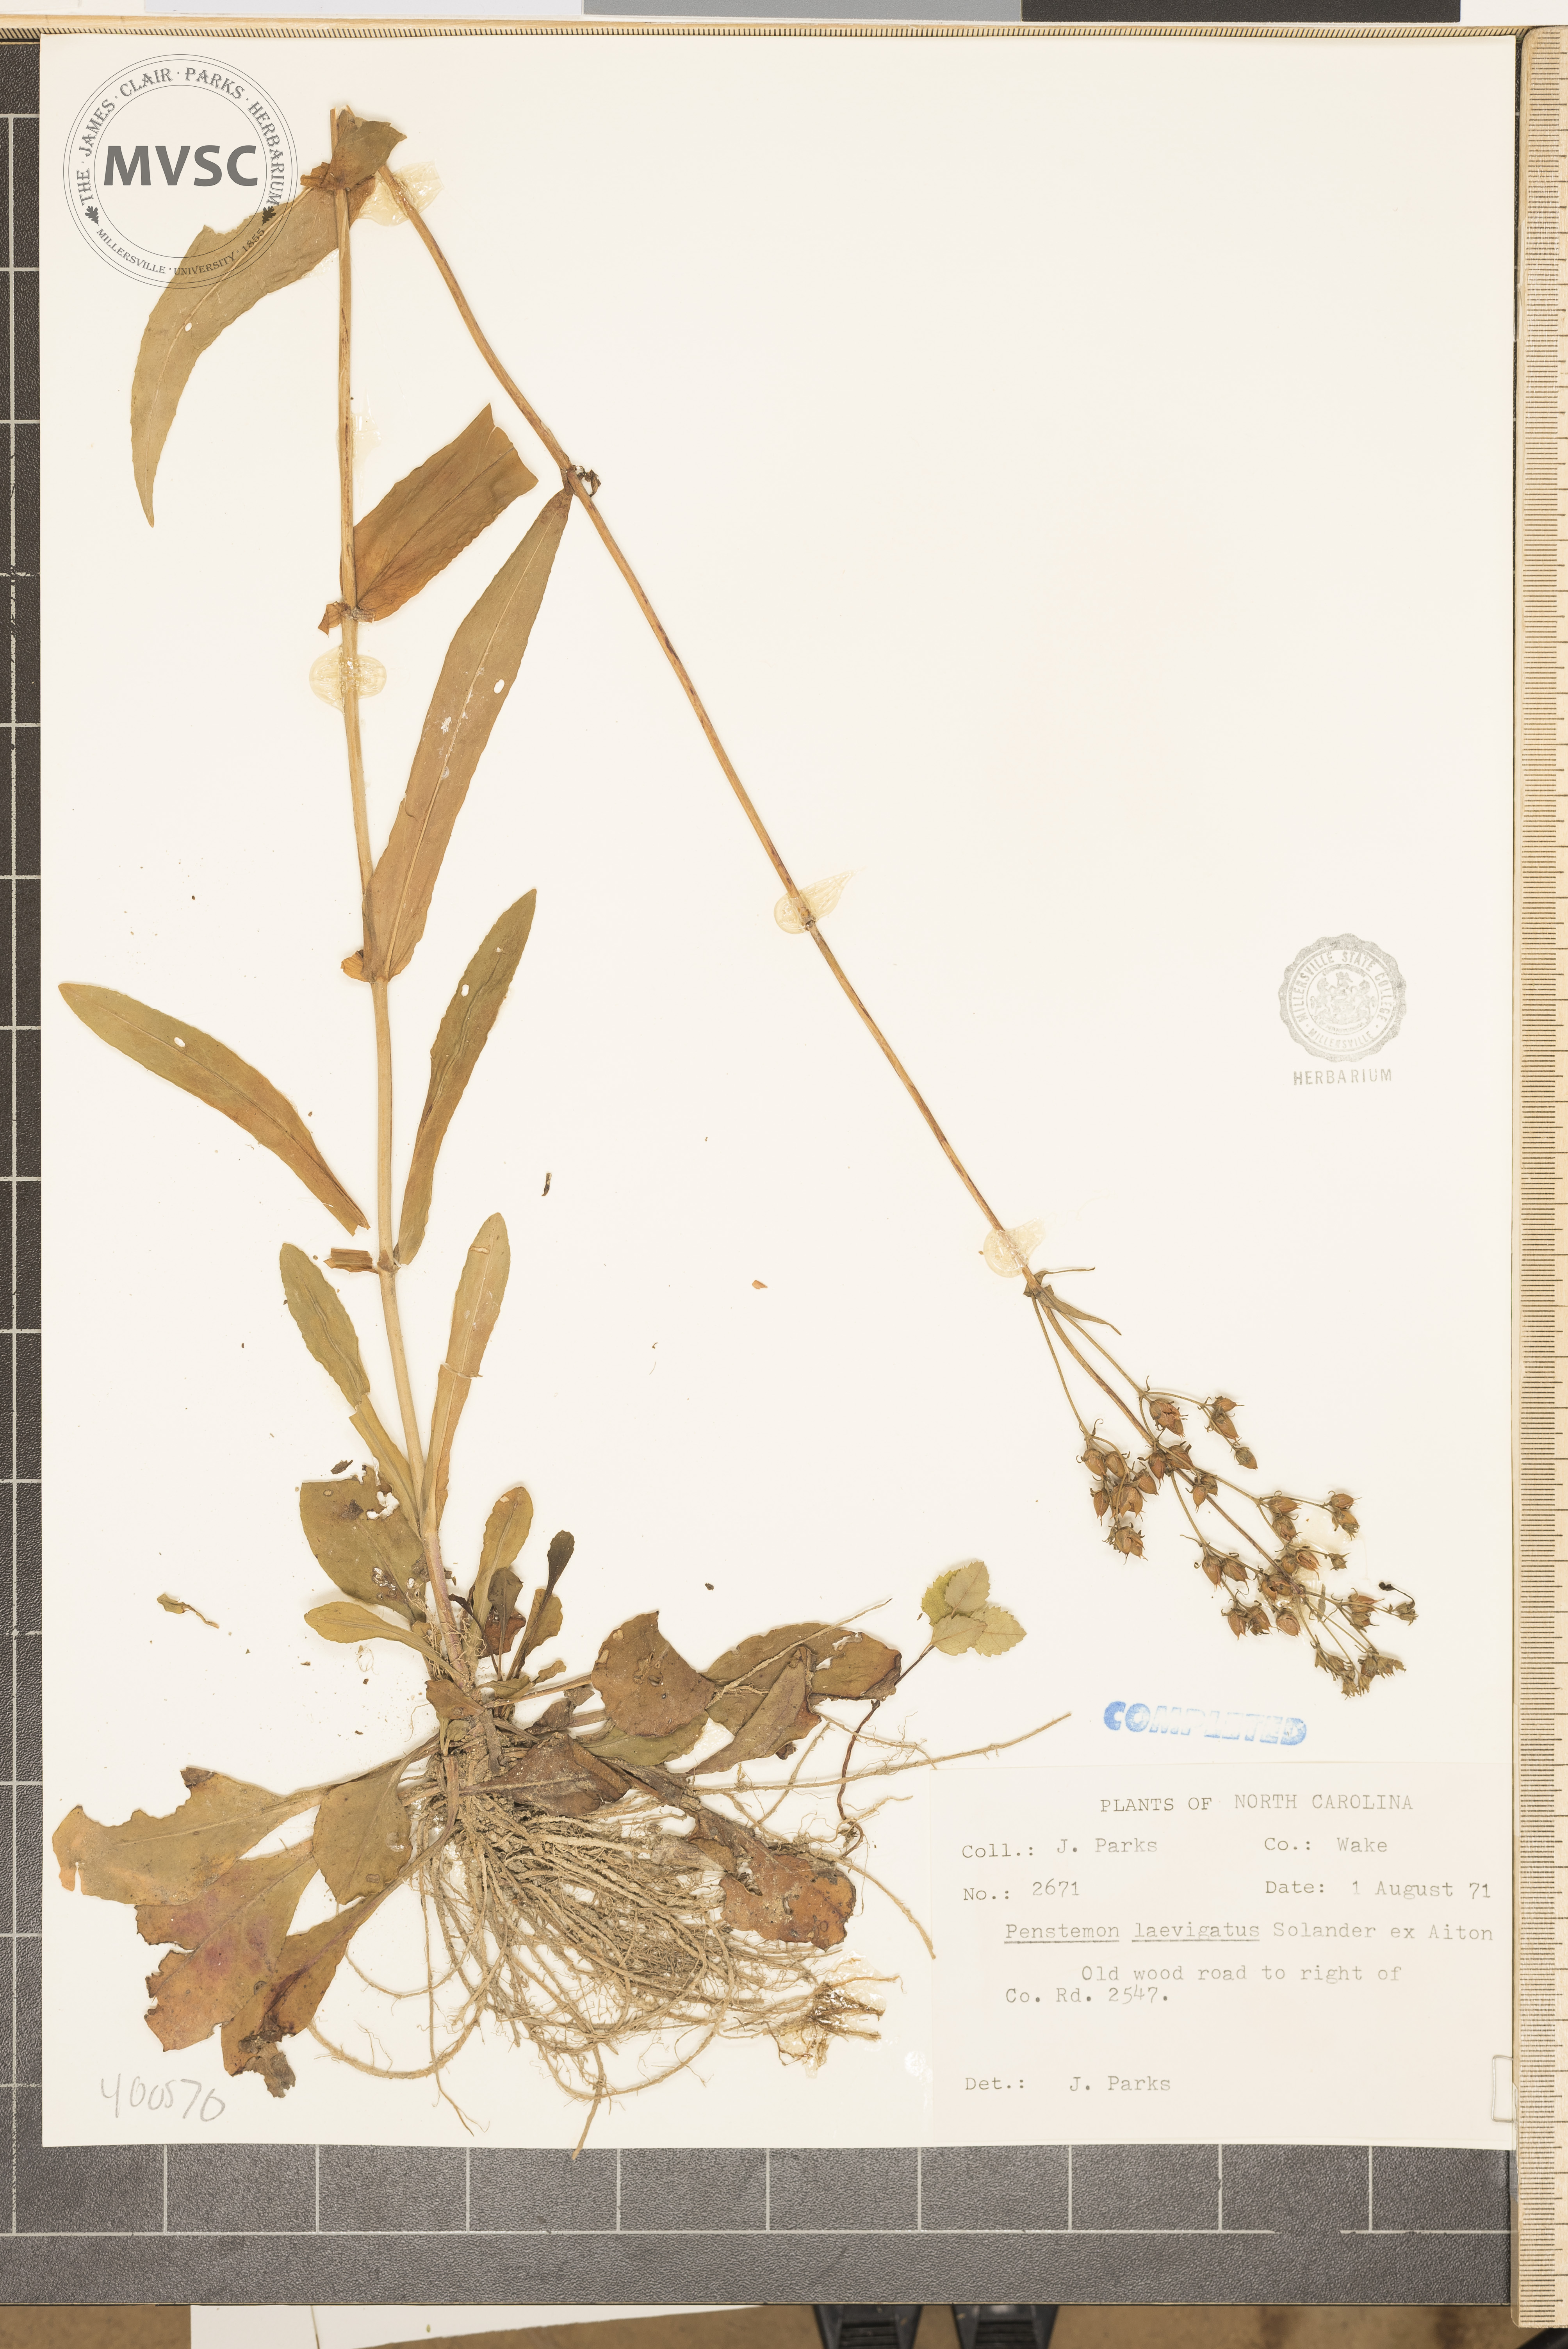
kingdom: Plantae
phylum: Tracheophyta
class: Magnoliopsida
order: Lamiales
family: Plantaginaceae
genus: Penstemon
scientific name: Penstemon laevigatus
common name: Eastern beardtongue
